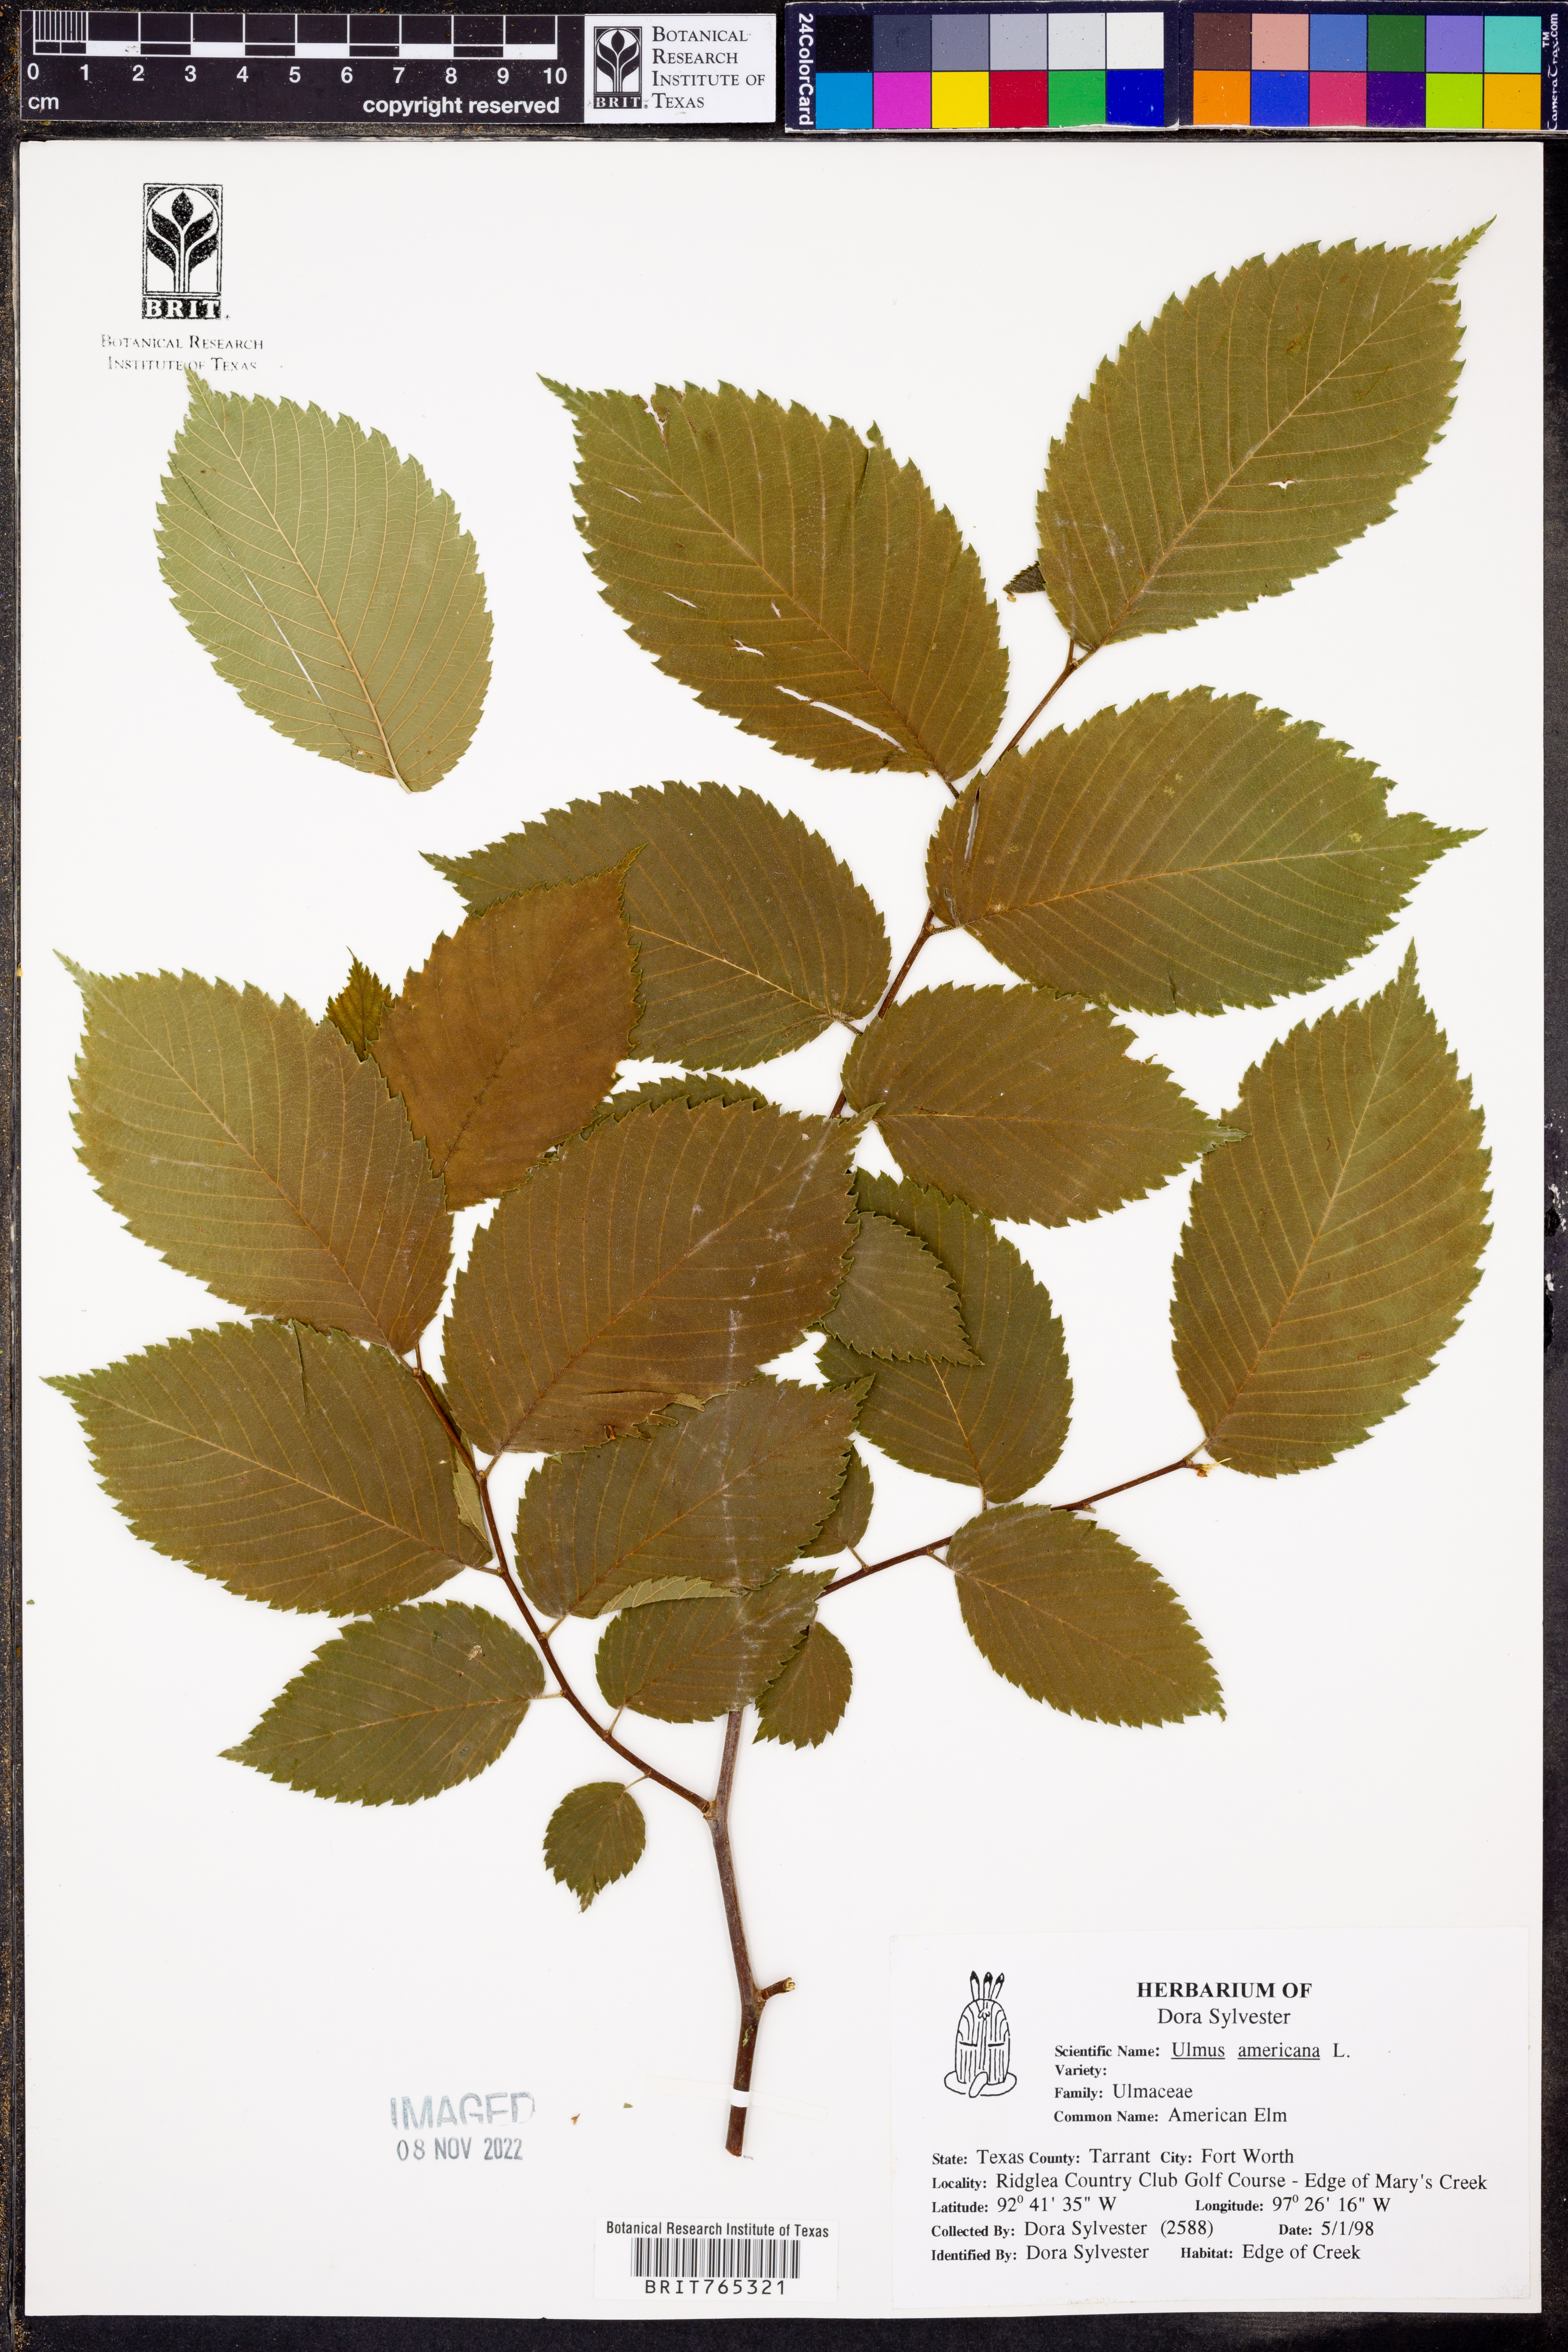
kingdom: Plantae
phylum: Tracheophyta
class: Magnoliopsida
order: Rosales
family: Ulmaceae
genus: Ulmus
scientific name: Ulmus americana
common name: American elm
